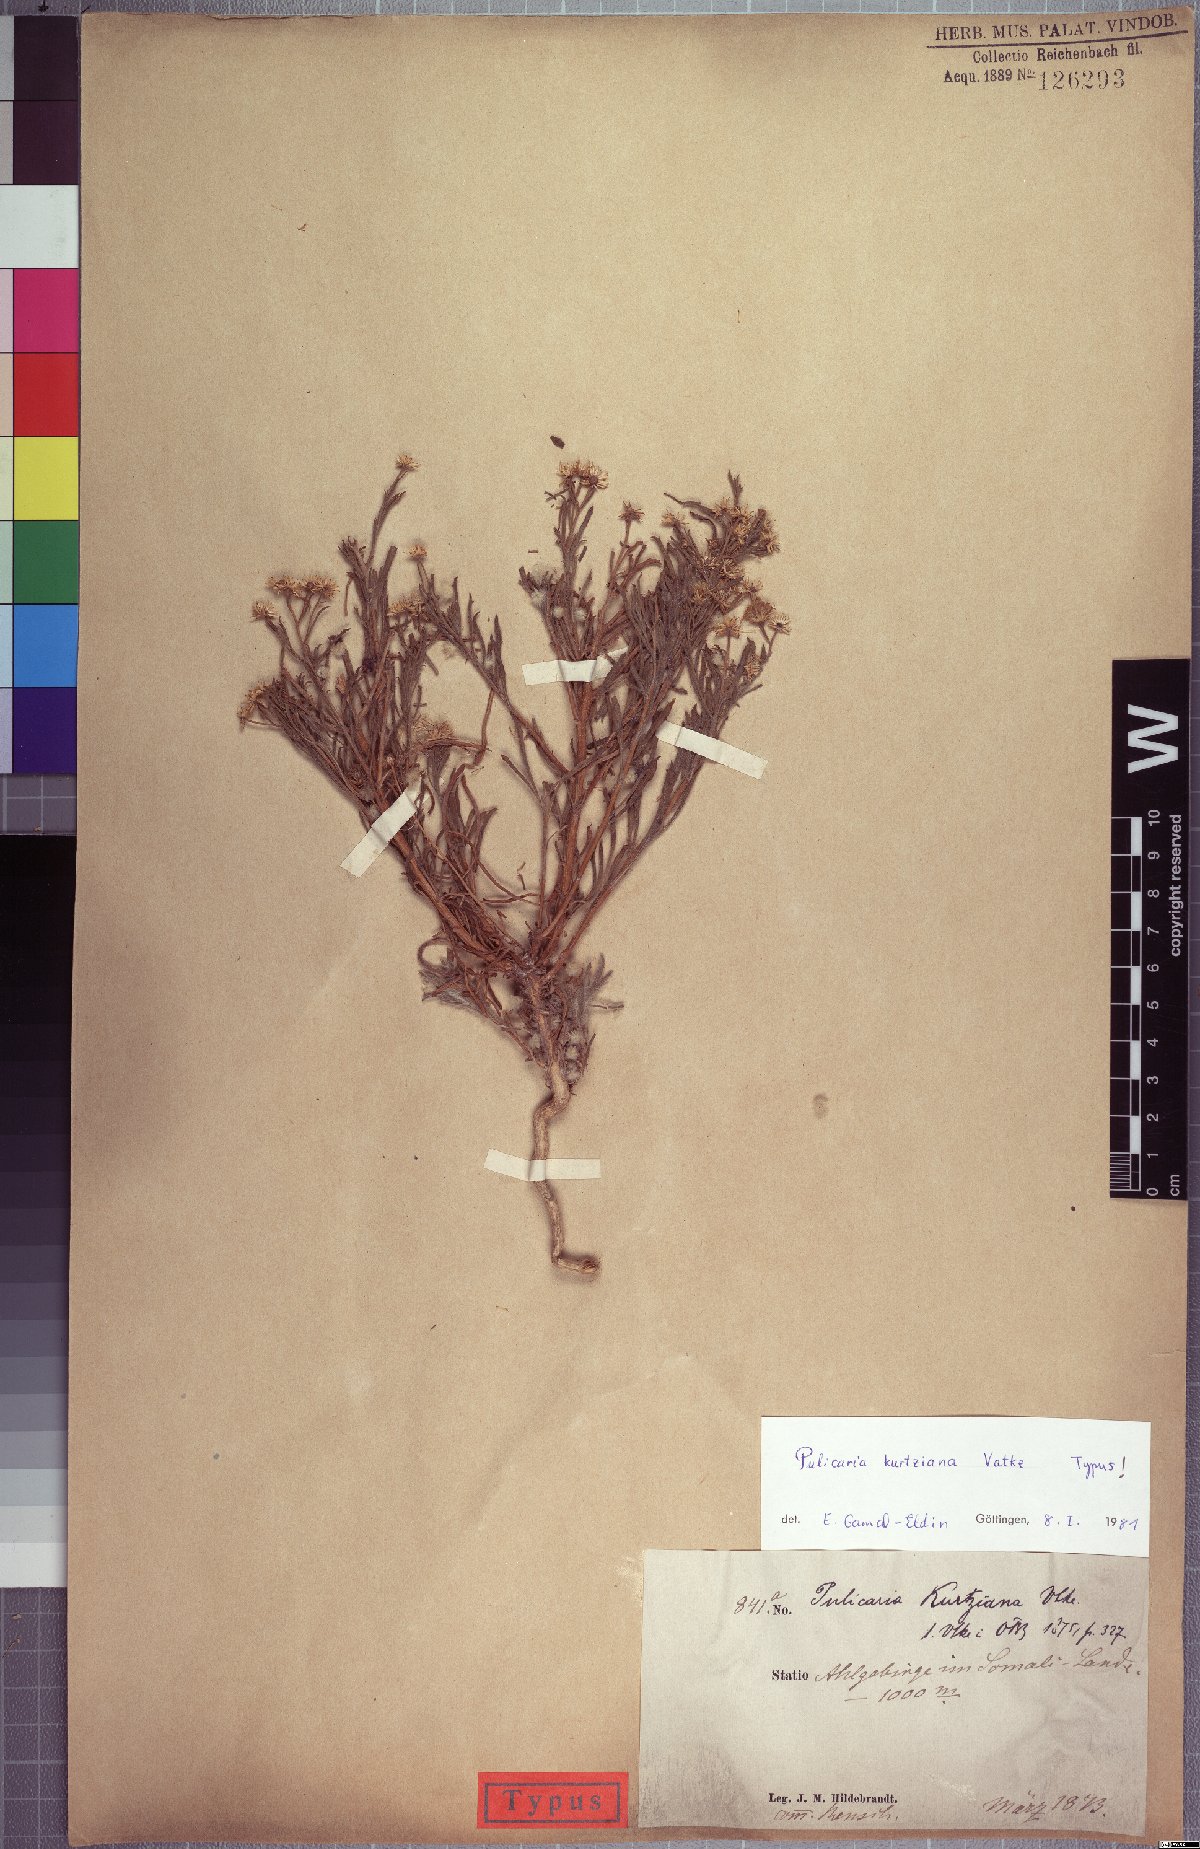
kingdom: Plantae
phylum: Tracheophyta
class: Magnoliopsida
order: Asterales
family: Asteraceae
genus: Pulicaria
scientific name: Pulicaria kurtziana
